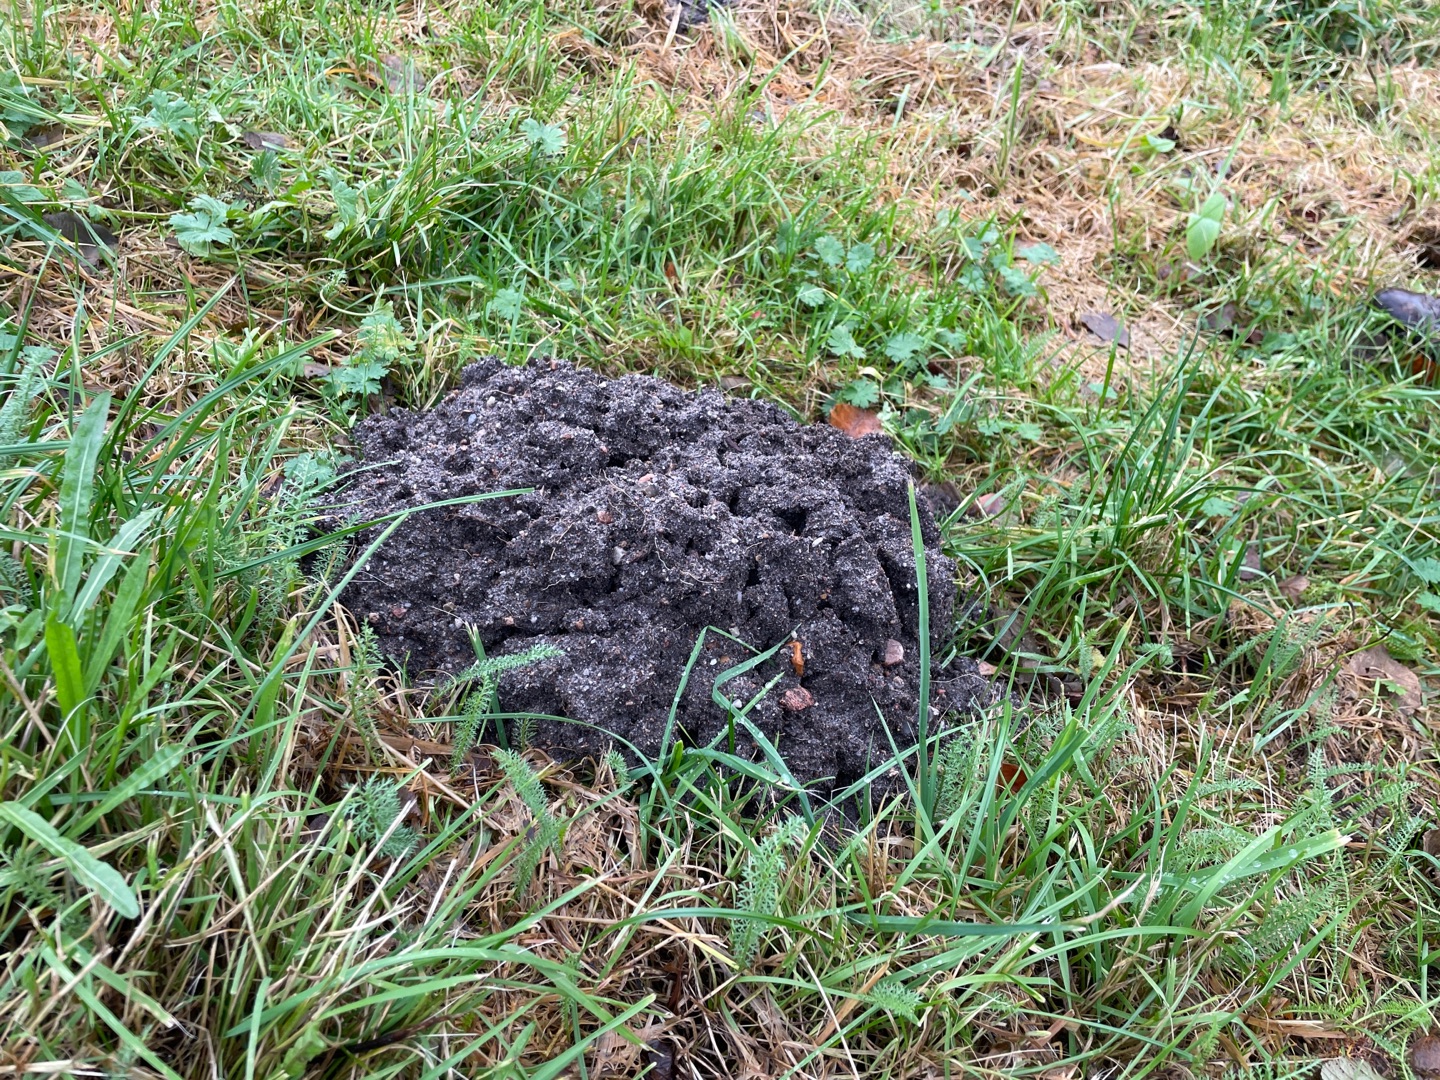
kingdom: Animalia
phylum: Chordata
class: Mammalia
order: Soricomorpha
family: Talpidae
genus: Talpa
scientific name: Talpa europaea
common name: Muldvarp
